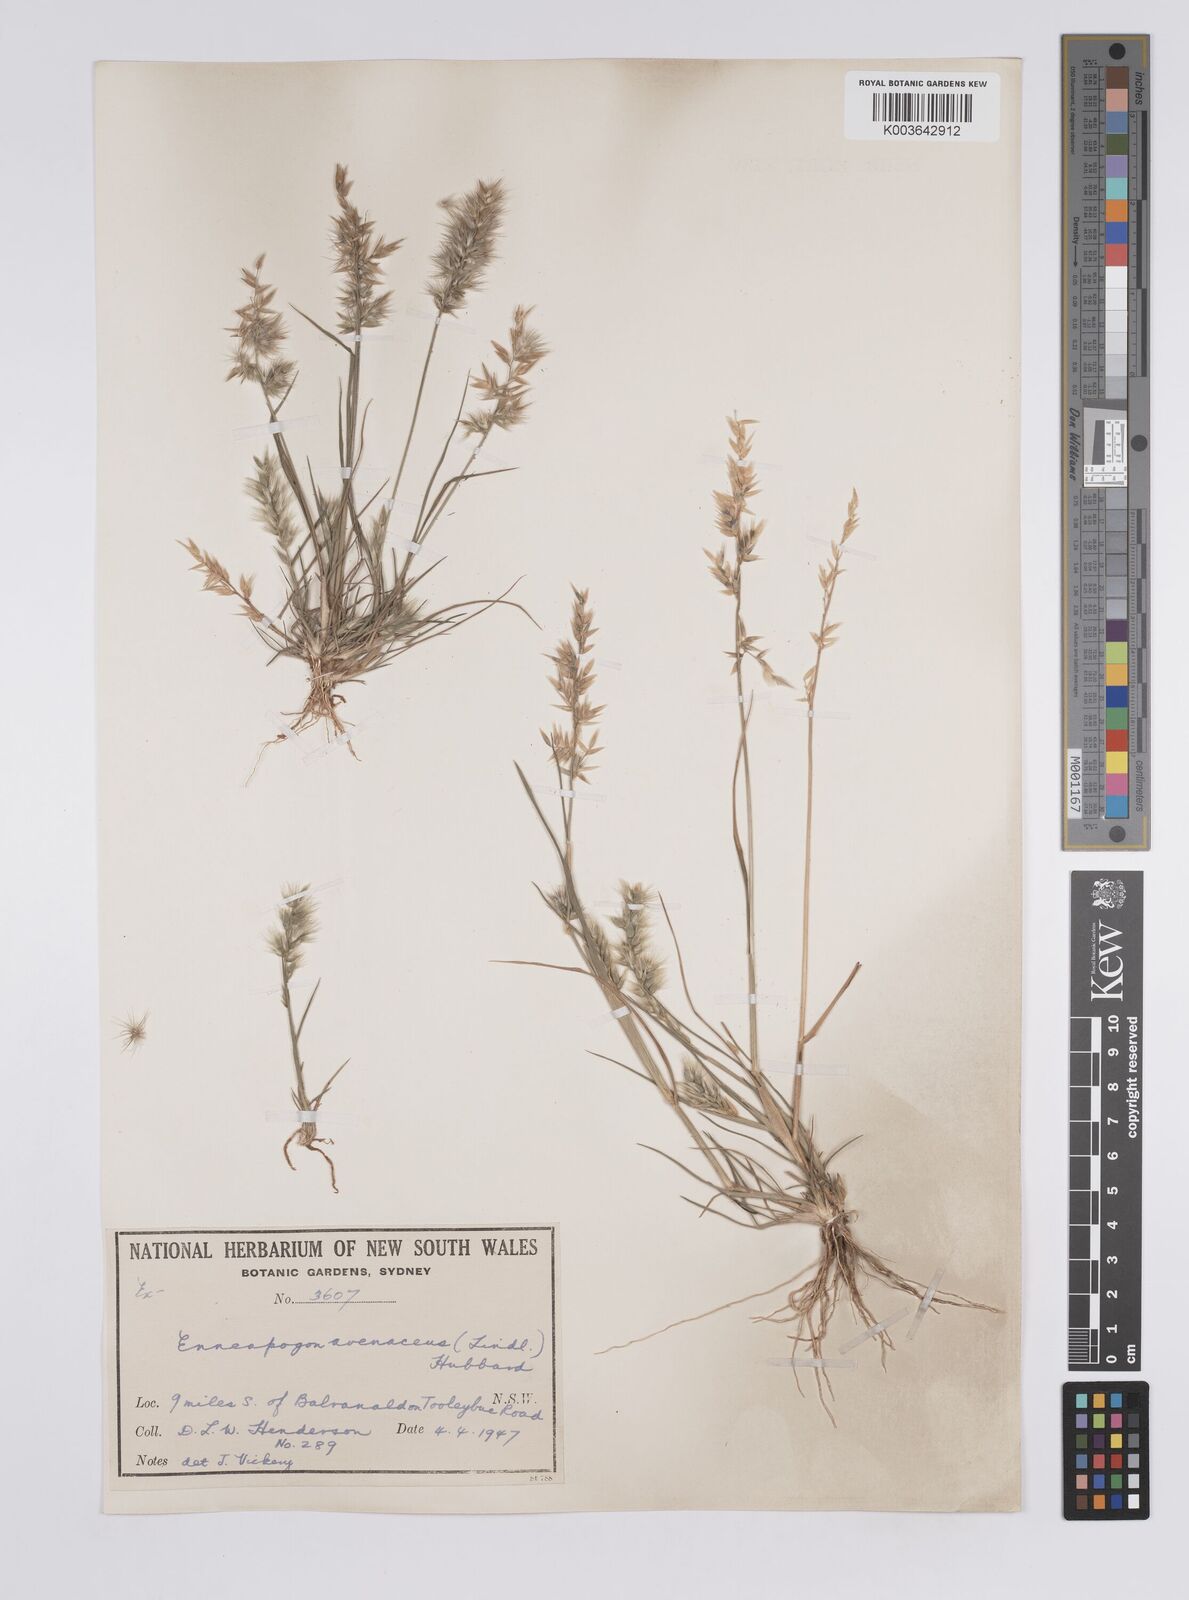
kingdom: Plantae
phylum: Tracheophyta
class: Liliopsida
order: Poales
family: Poaceae
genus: Enneapogon
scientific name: Enneapogon avenaceus
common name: Hairy oat grass
